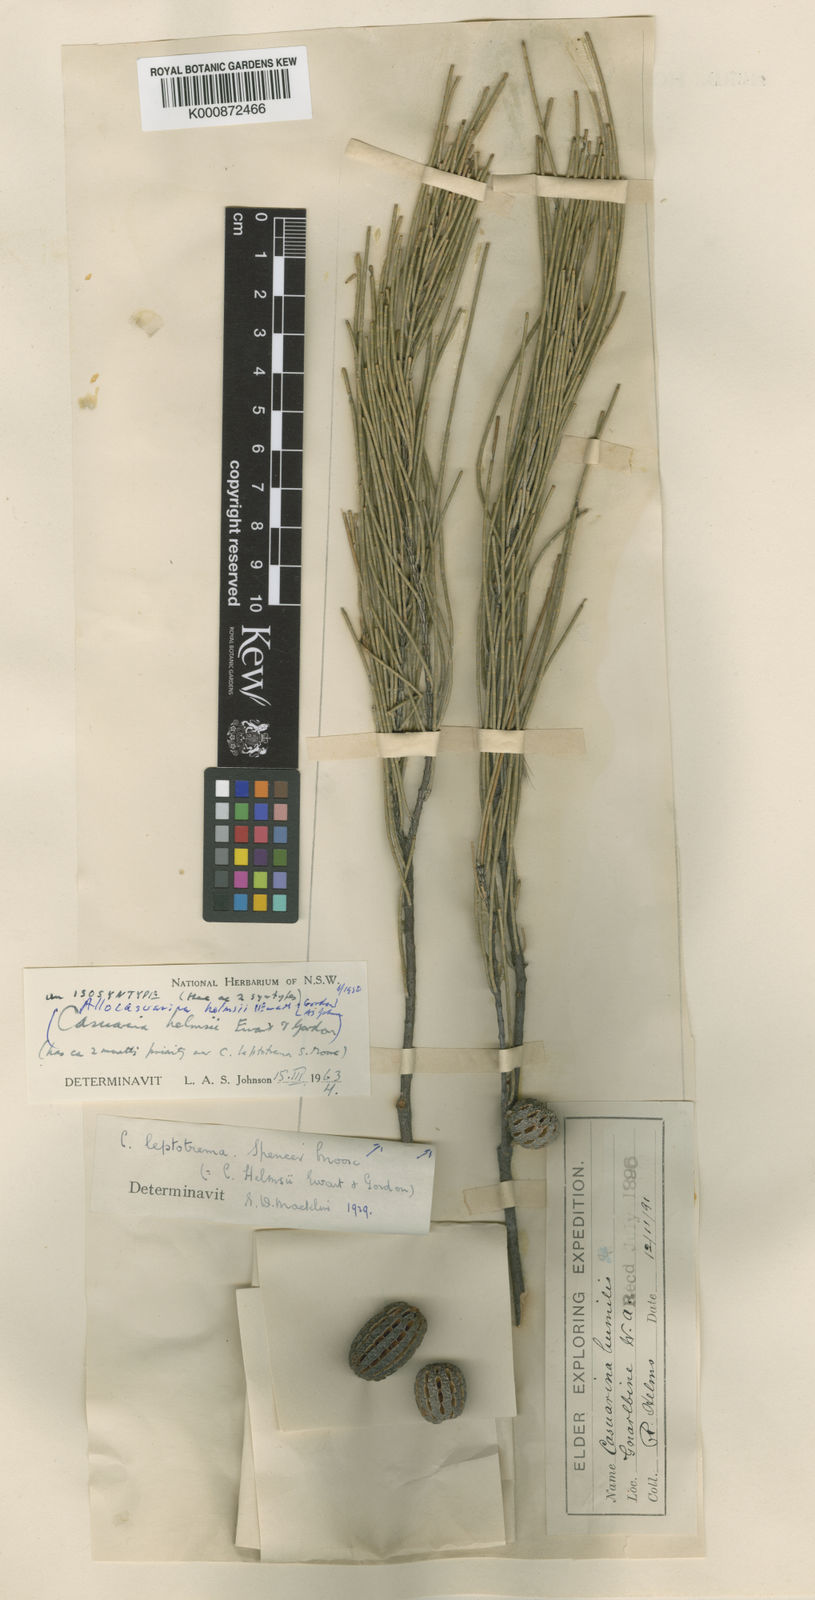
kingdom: Plantae
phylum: Tracheophyta
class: Magnoliopsida
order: Fagales
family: Casuarinaceae
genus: Allocasuarina
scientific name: Allocasuarina helmsii
